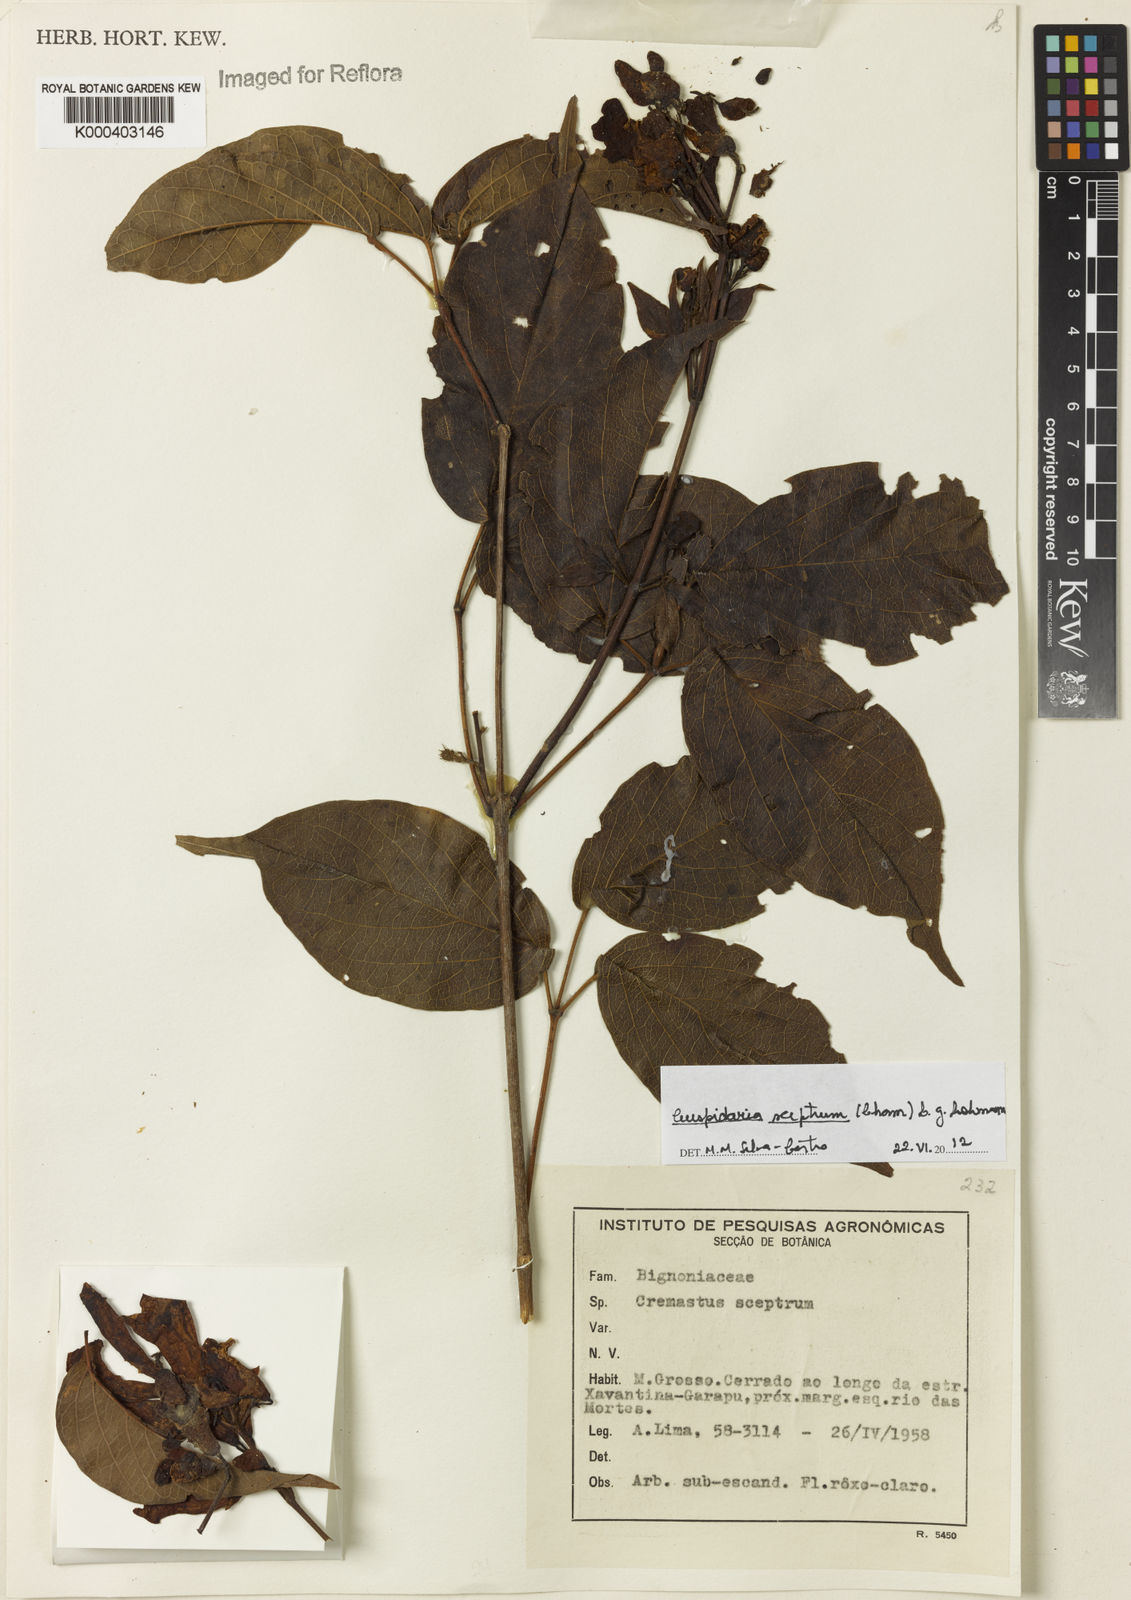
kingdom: Plantae
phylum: Tracheophyta
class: Magnoliopsida
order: Lamiales
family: Bignoniaceae
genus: Cuspidaria
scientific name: Cuspidaria sceptrum
